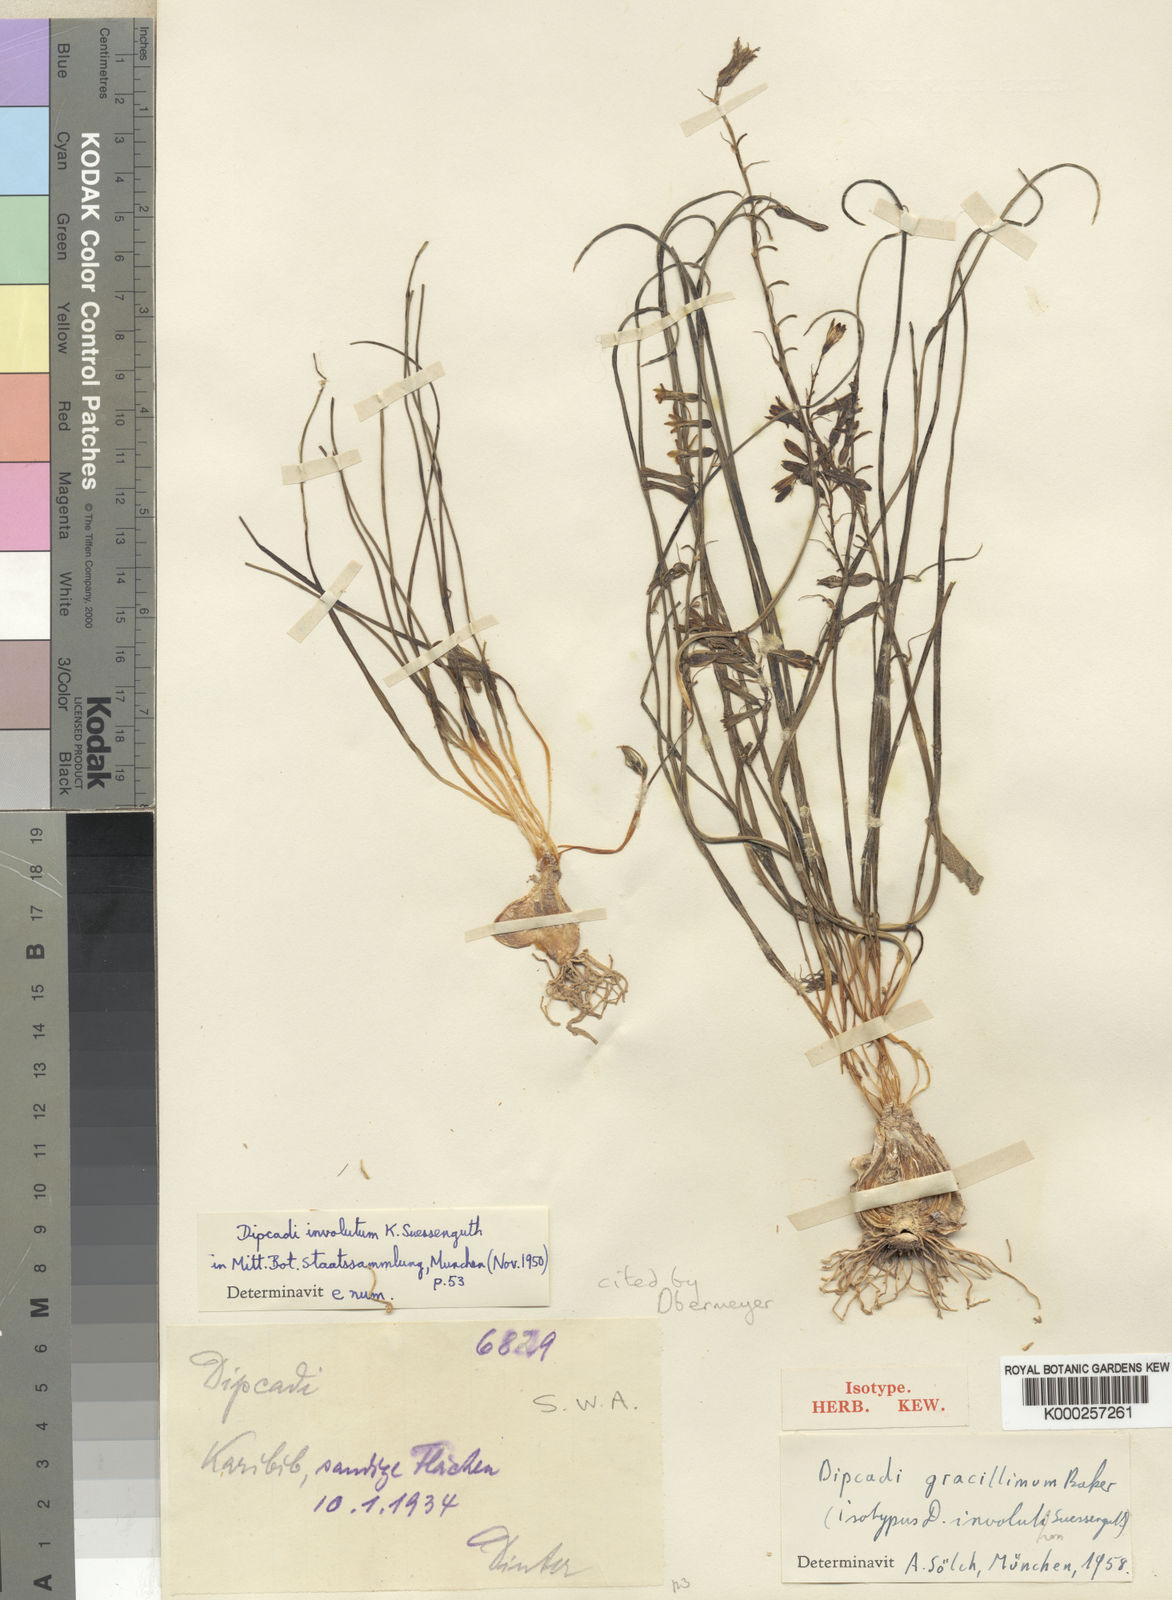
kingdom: Plantae
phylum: Tracheophyta
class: Liliopsida
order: Asparagales
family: Asparagaceae
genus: Dipcadi
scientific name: Dipcadi gracillimum
